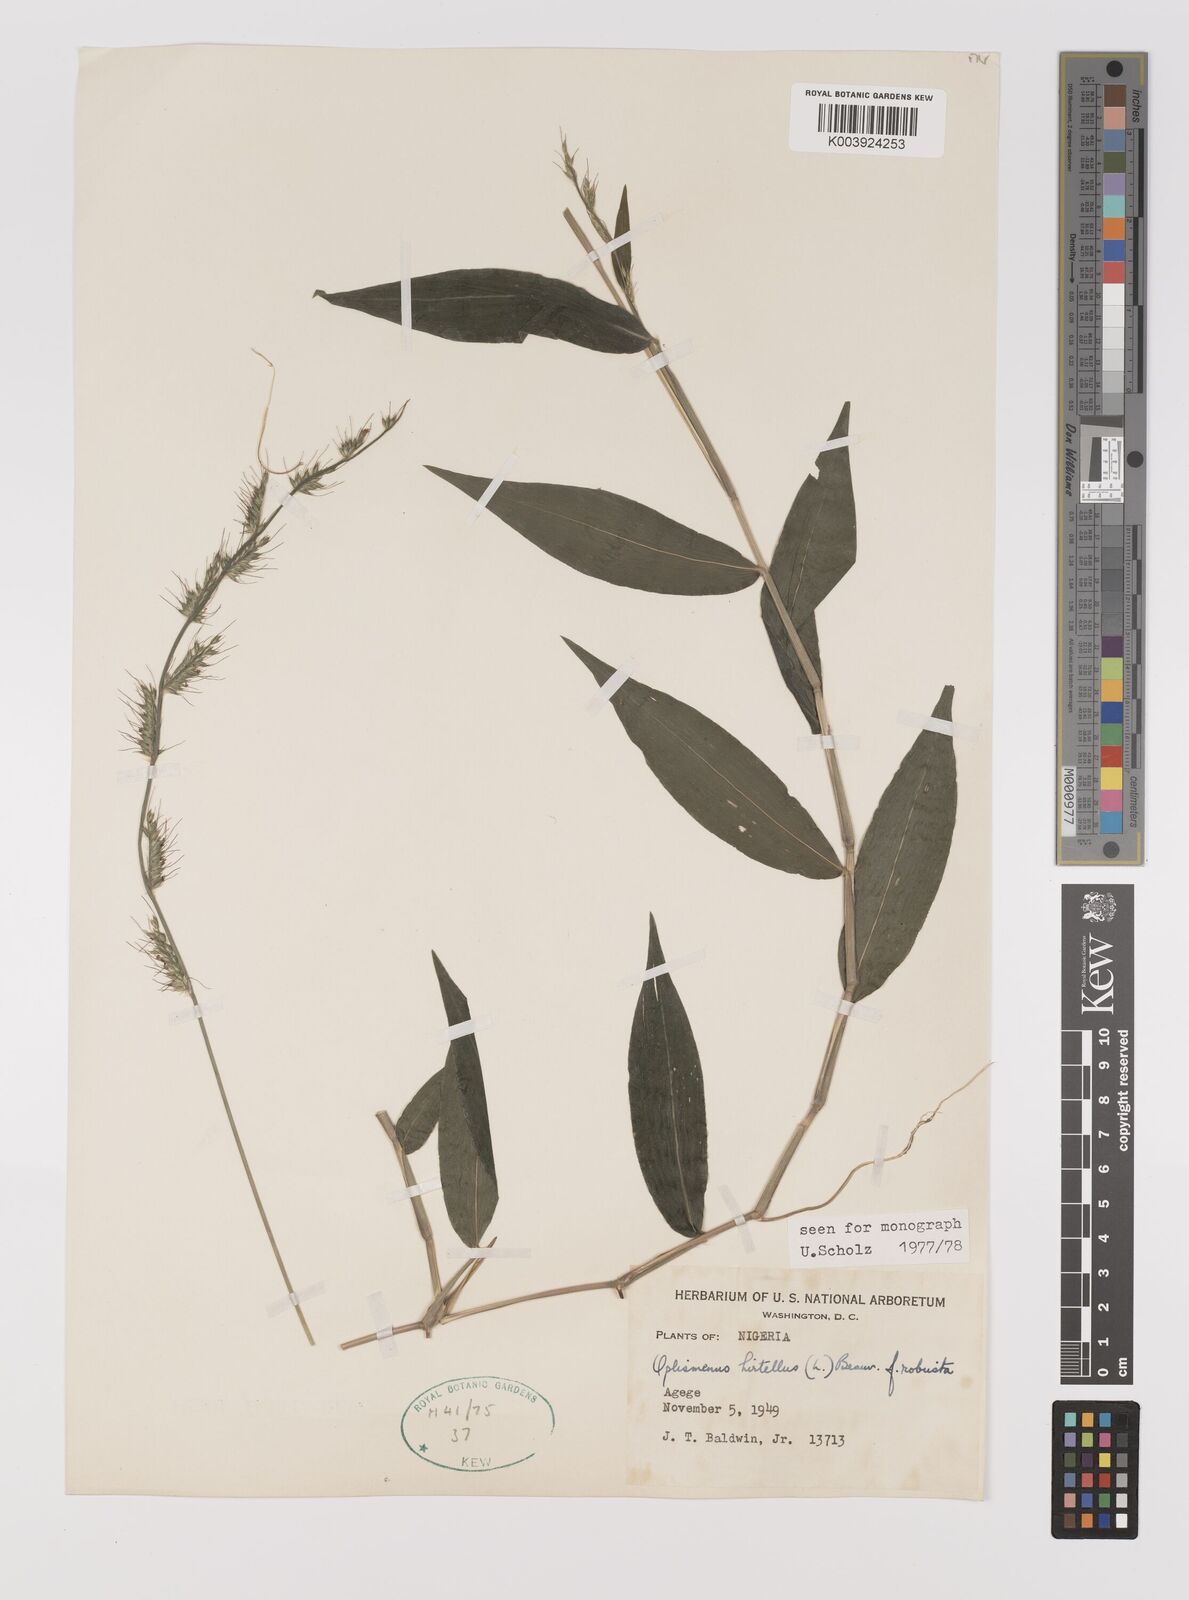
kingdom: Plantae
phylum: Tracheophyta
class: Liliopsida
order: Poales
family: Poaceae
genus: Oplismenus
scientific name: Oplismenus hirtellus
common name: Basketgrass
